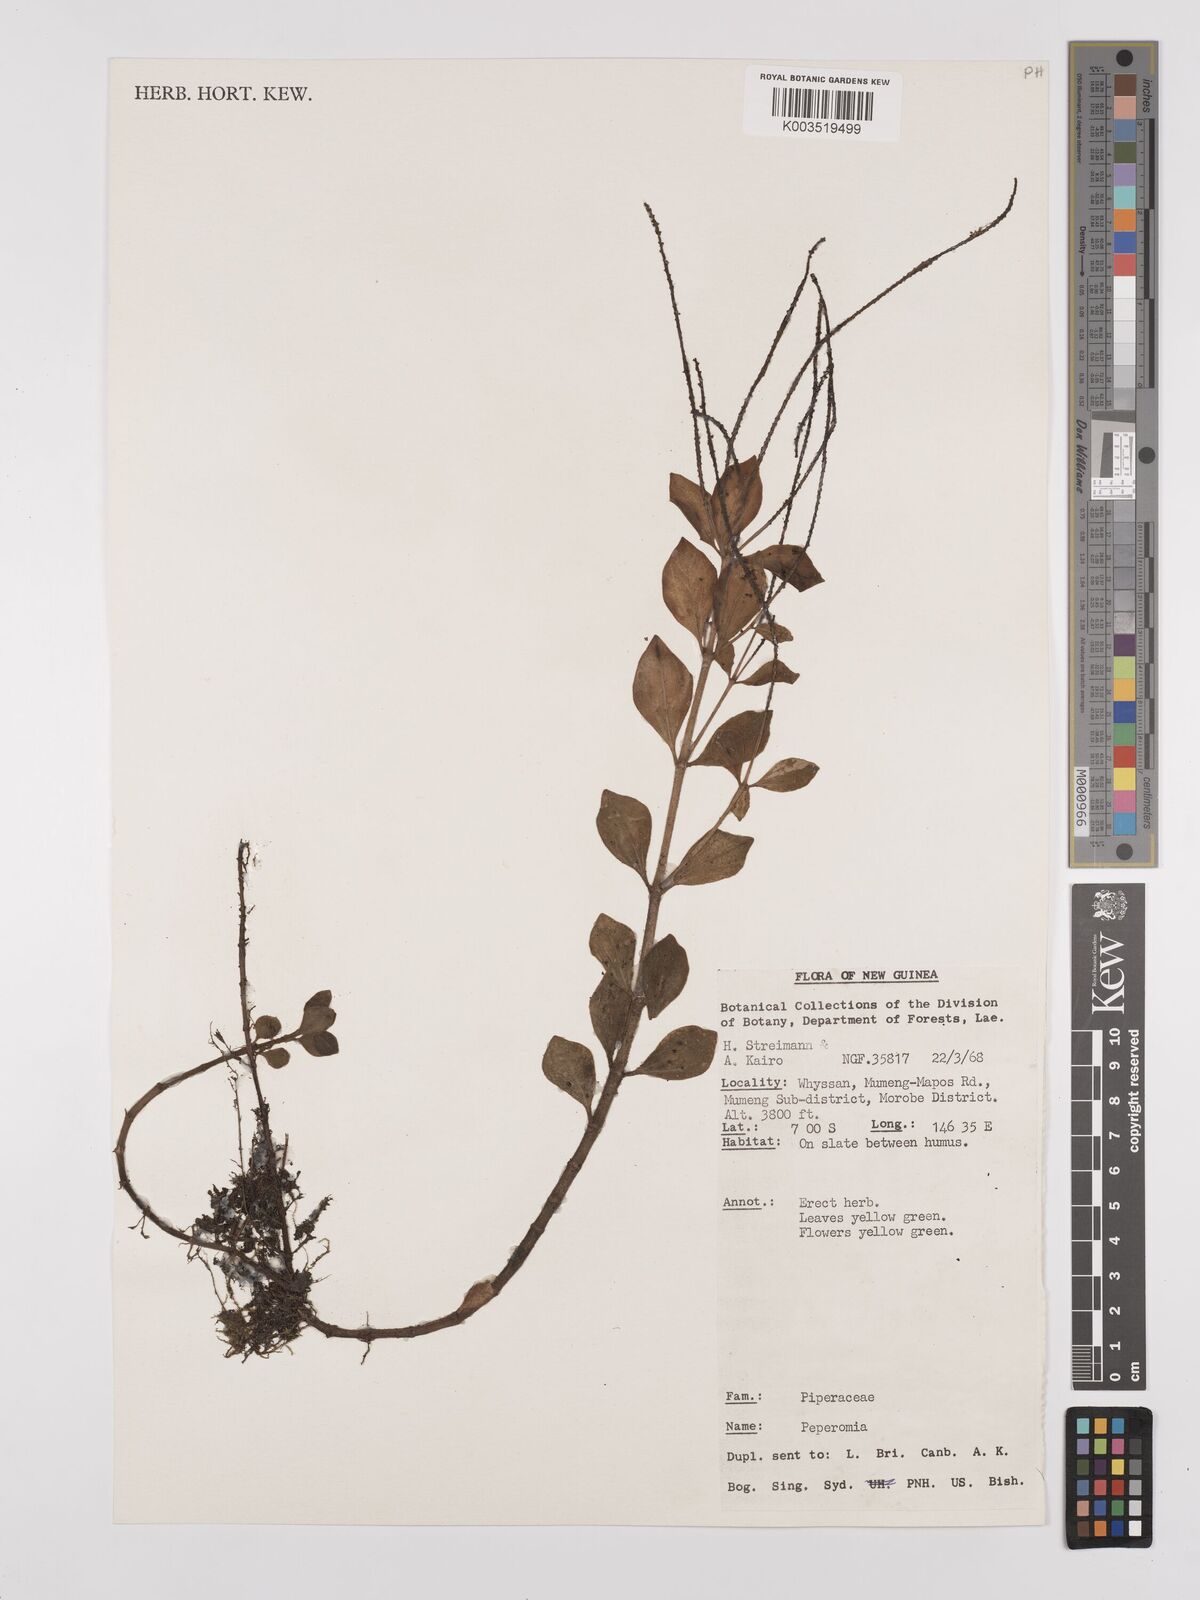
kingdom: Plantae
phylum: Tracheophyta
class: Magnoliopsida
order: Piperales
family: Piperaceae
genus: Peperomia
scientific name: Peperomia
